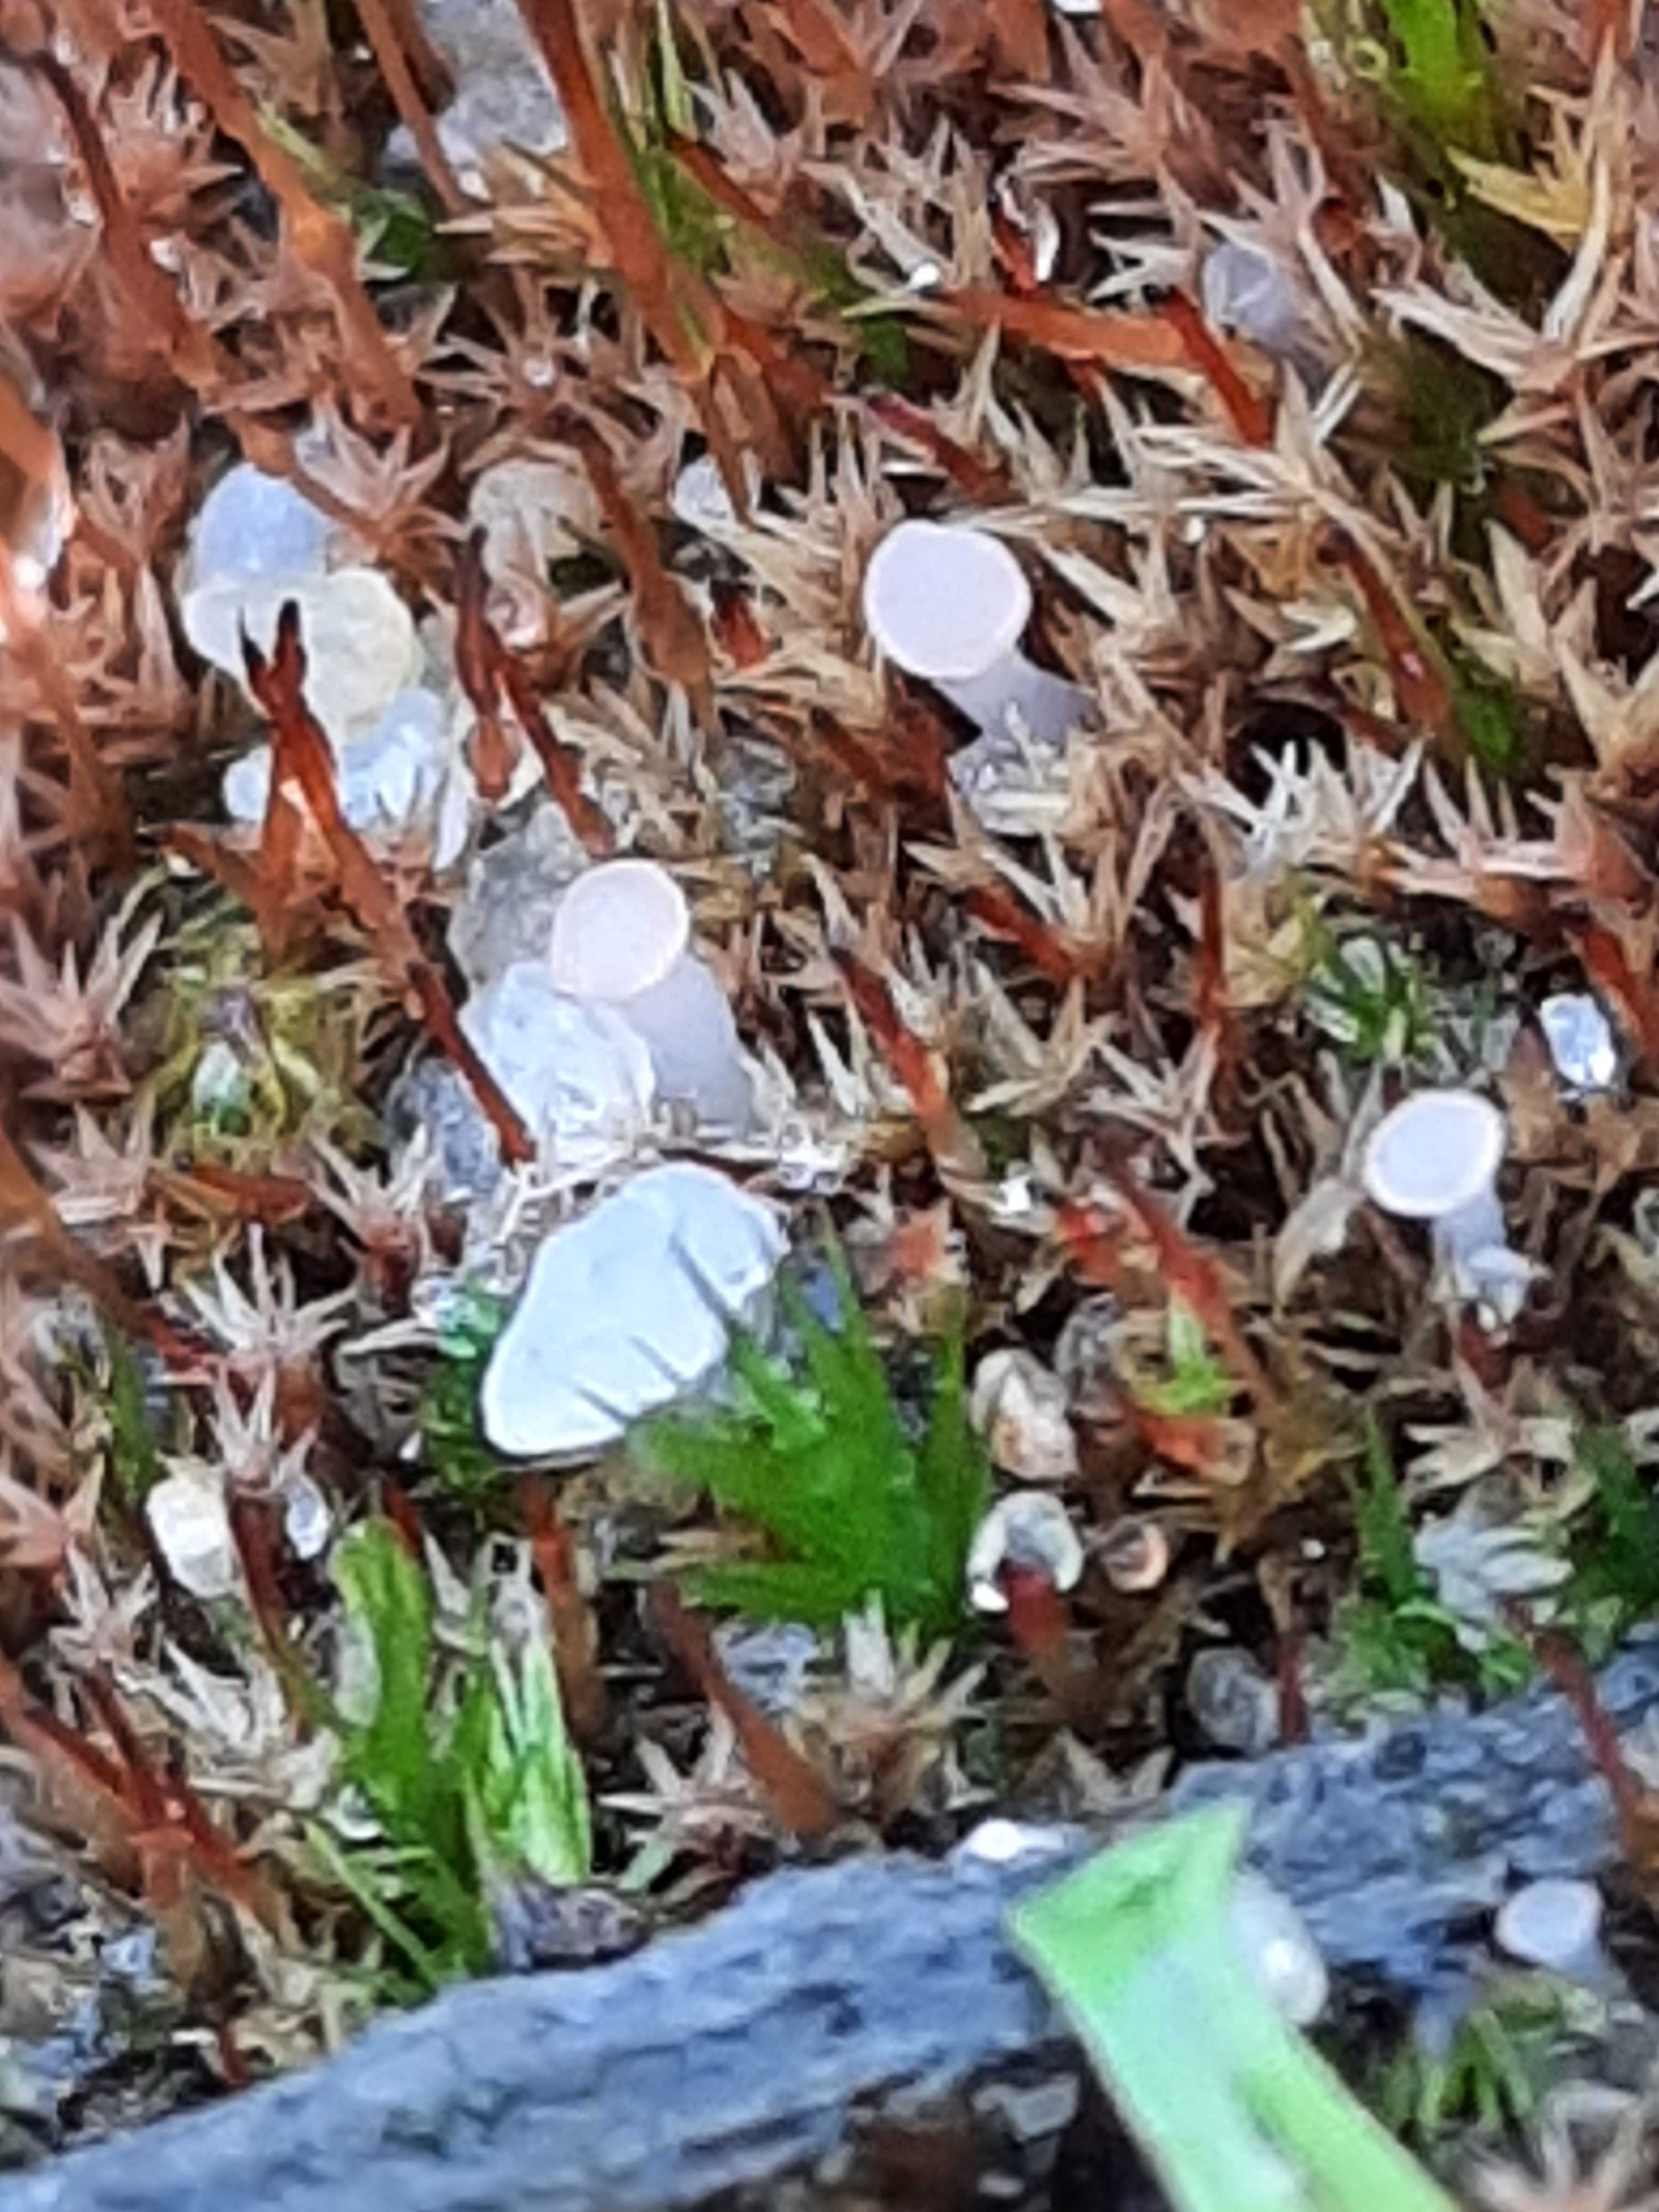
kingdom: Fungi
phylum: Ascomycota
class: Leotiomycetes
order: Helotiales
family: Hyaloscyphaceae
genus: Roseodiscus
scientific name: Roseodiscus formosus
